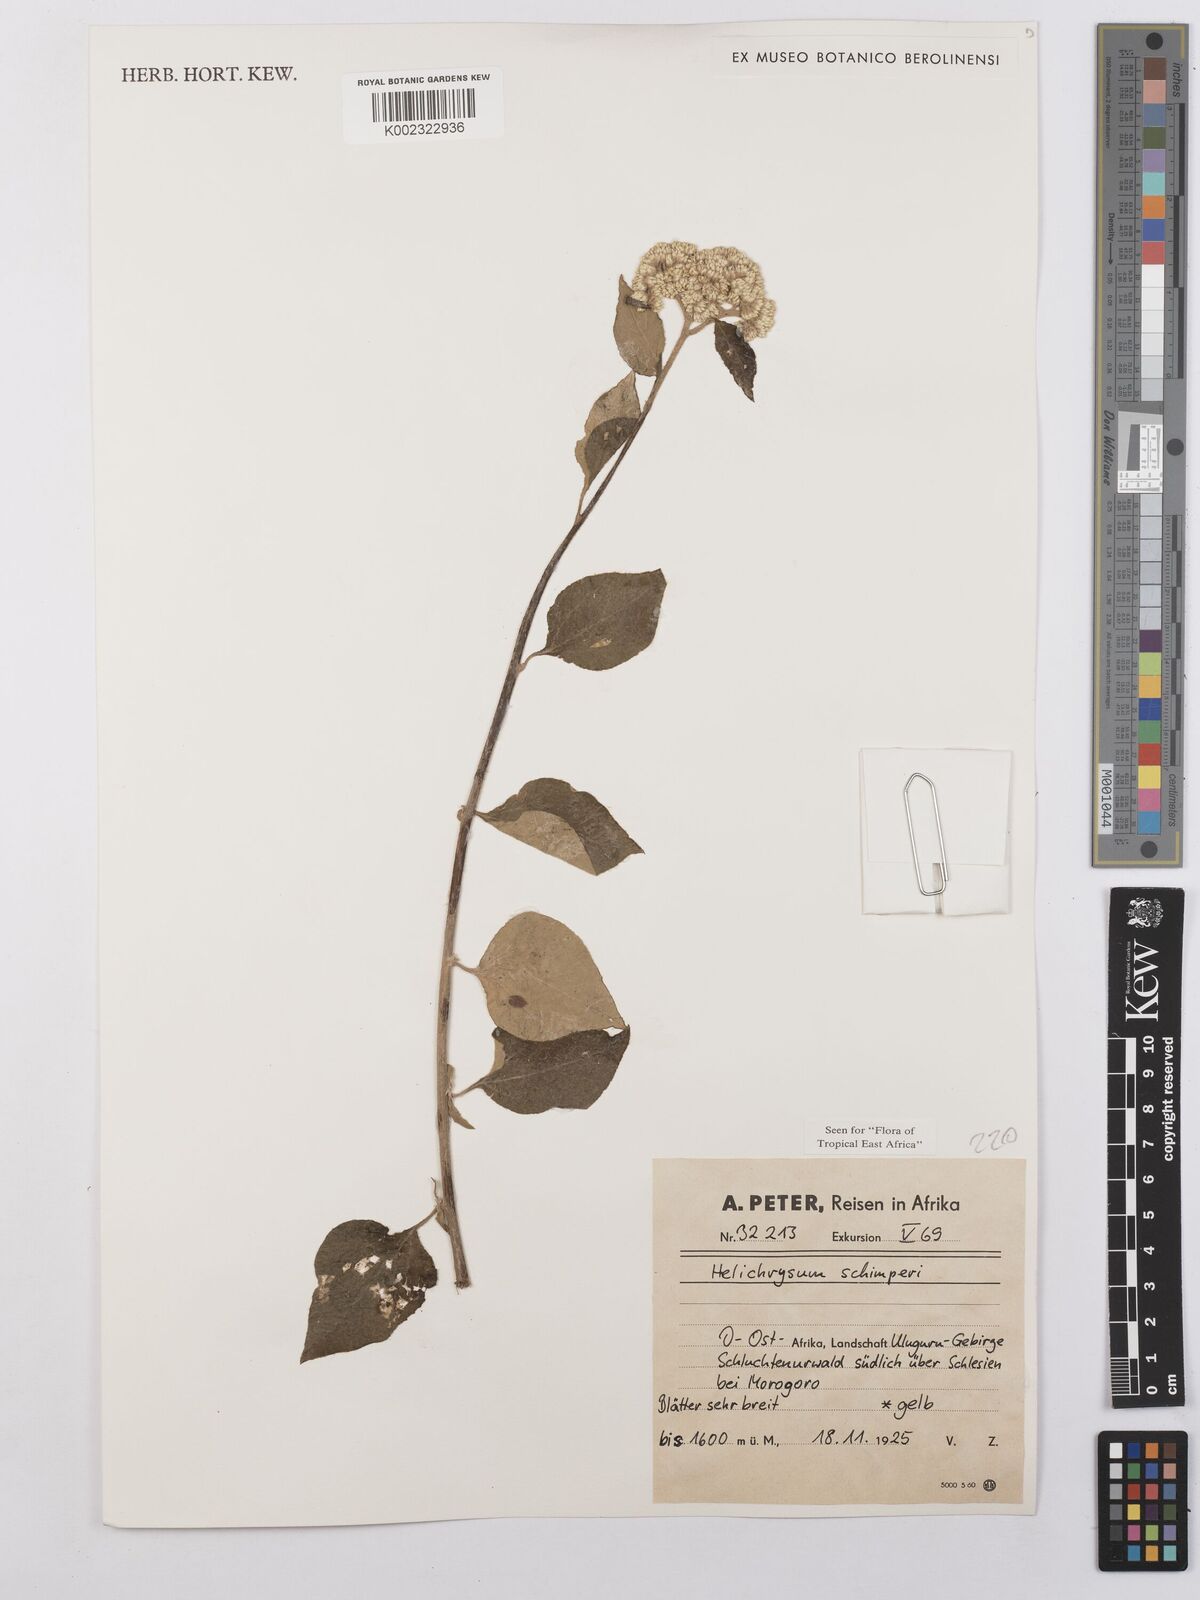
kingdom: Plantae
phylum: Tracheophyta
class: Magnoliopsida
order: Asterales
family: Asteraceae
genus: Helichrysum
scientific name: Helichrysum schimperi
